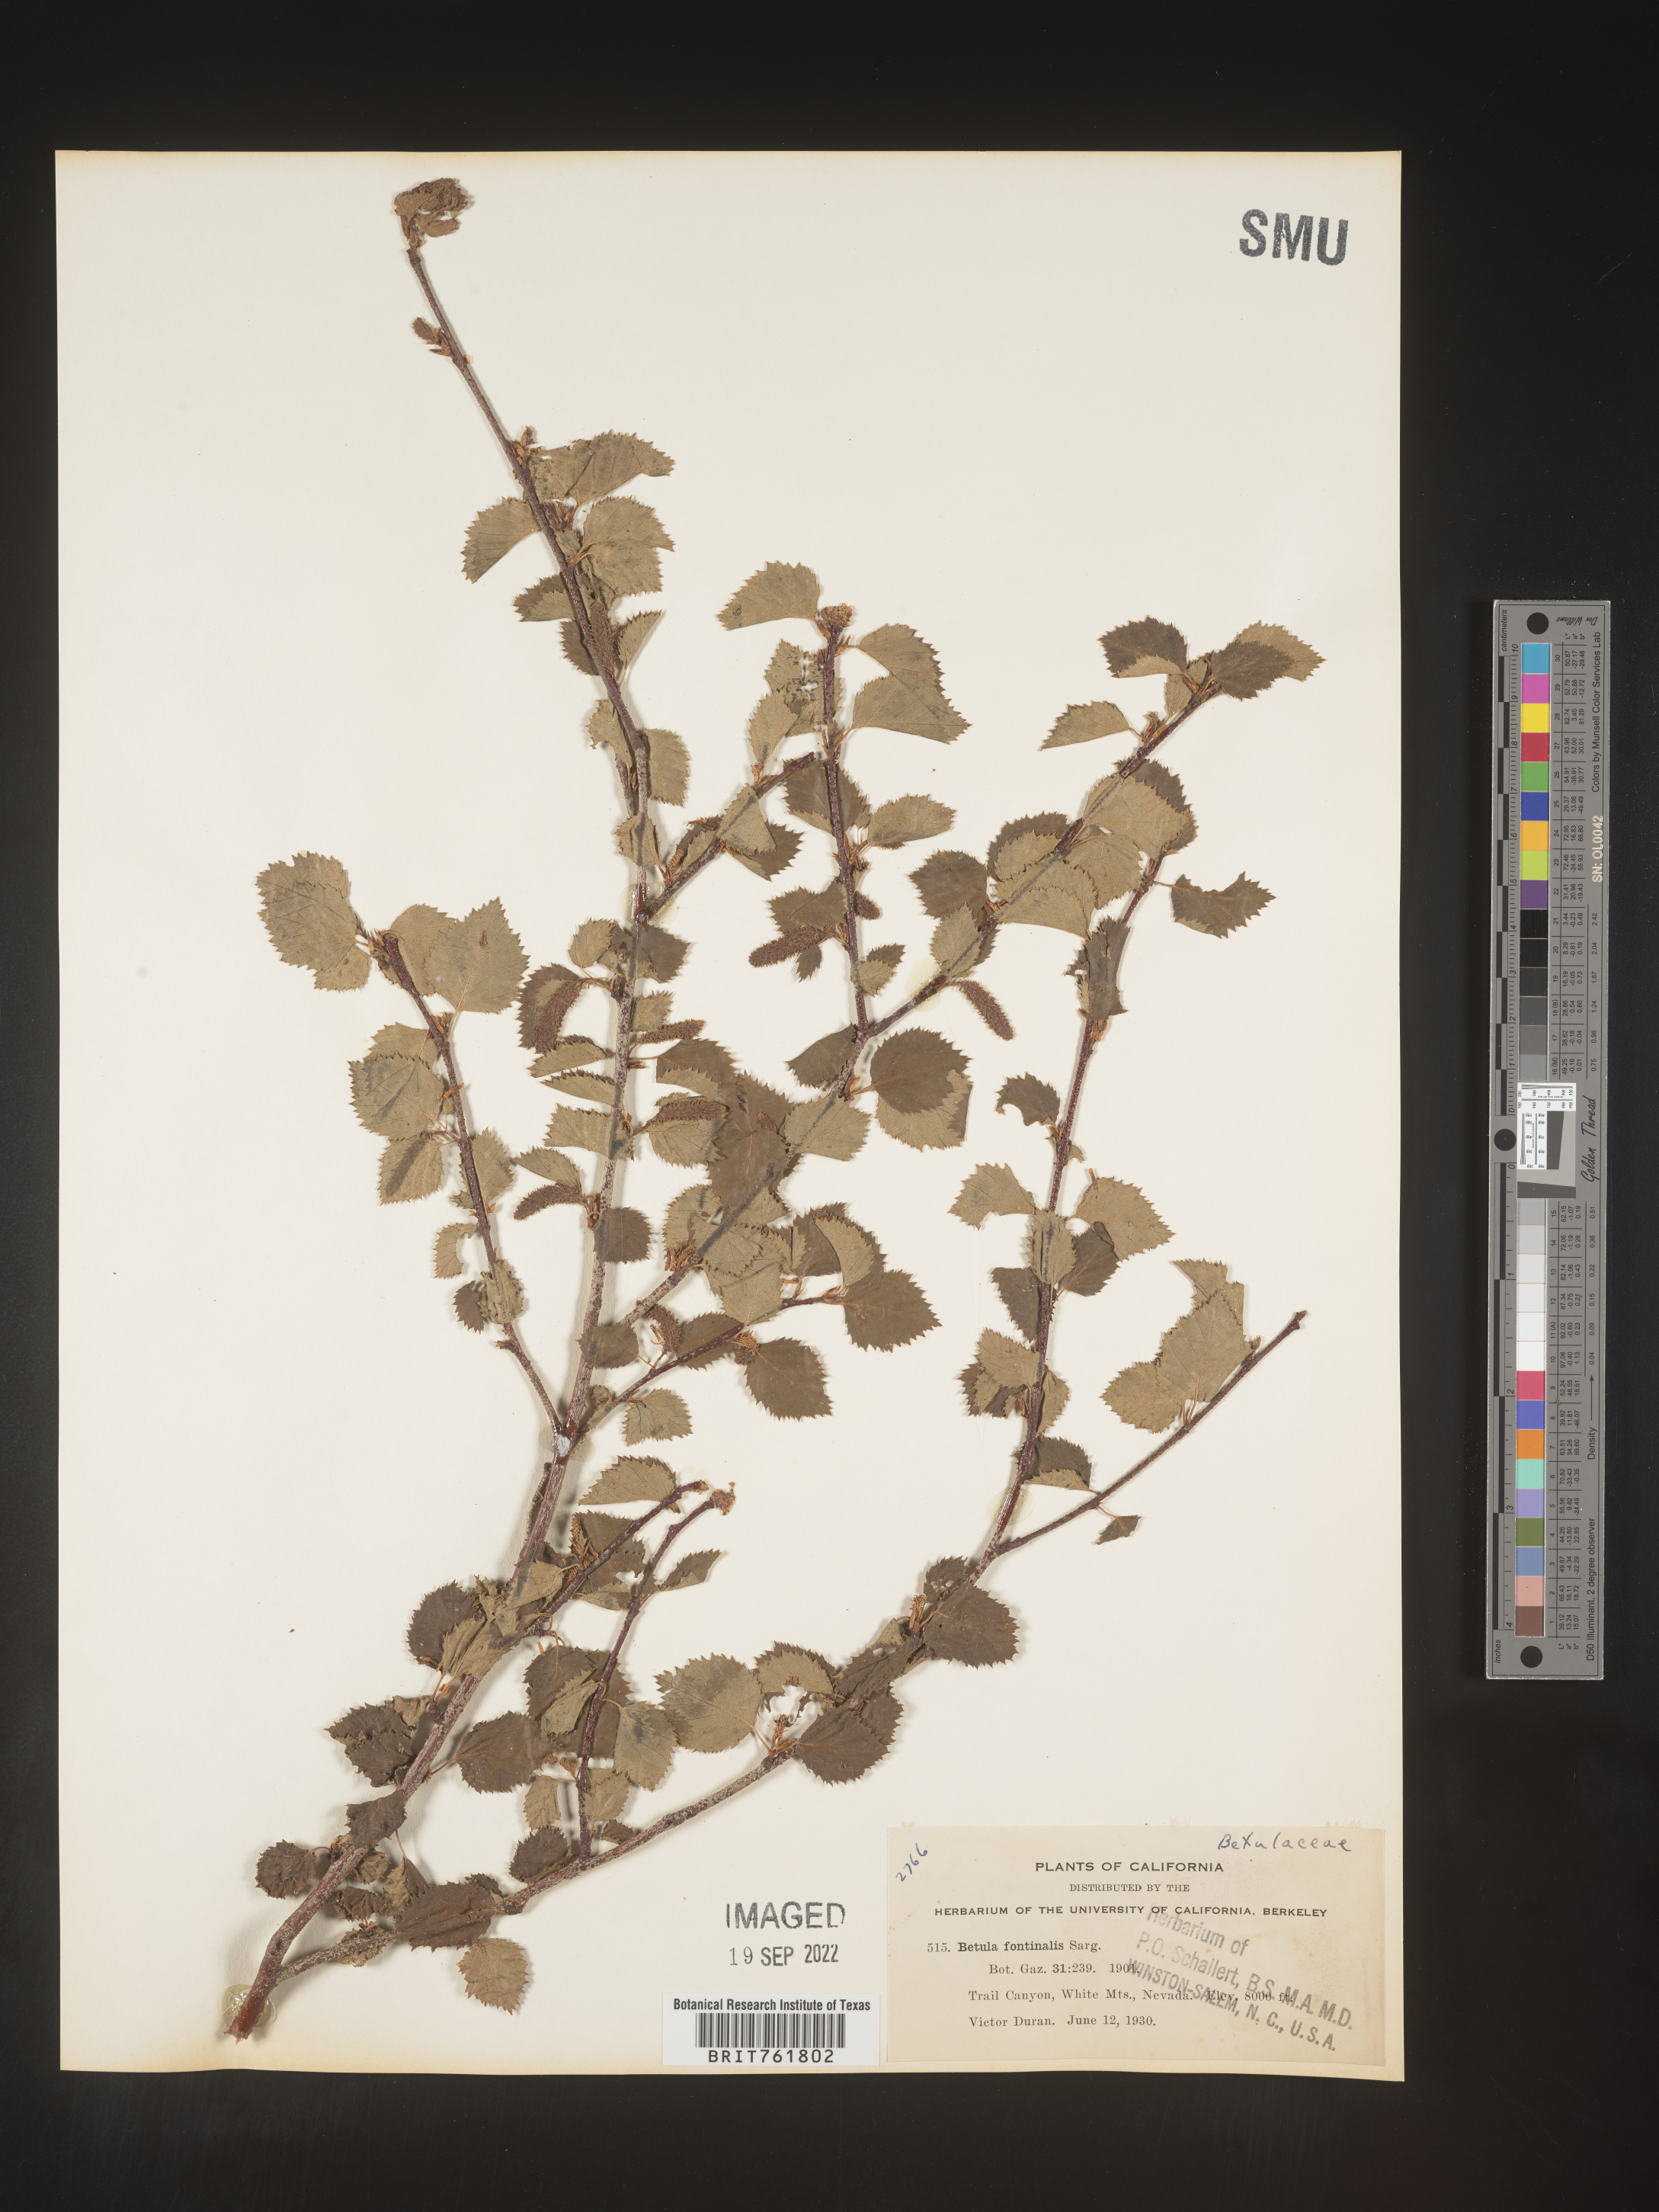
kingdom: Plantae
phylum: Tracheophyta
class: Magnoliopsida
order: Fagales
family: Betulaceae
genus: Betula
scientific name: Betula occidentalis
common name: River birch
